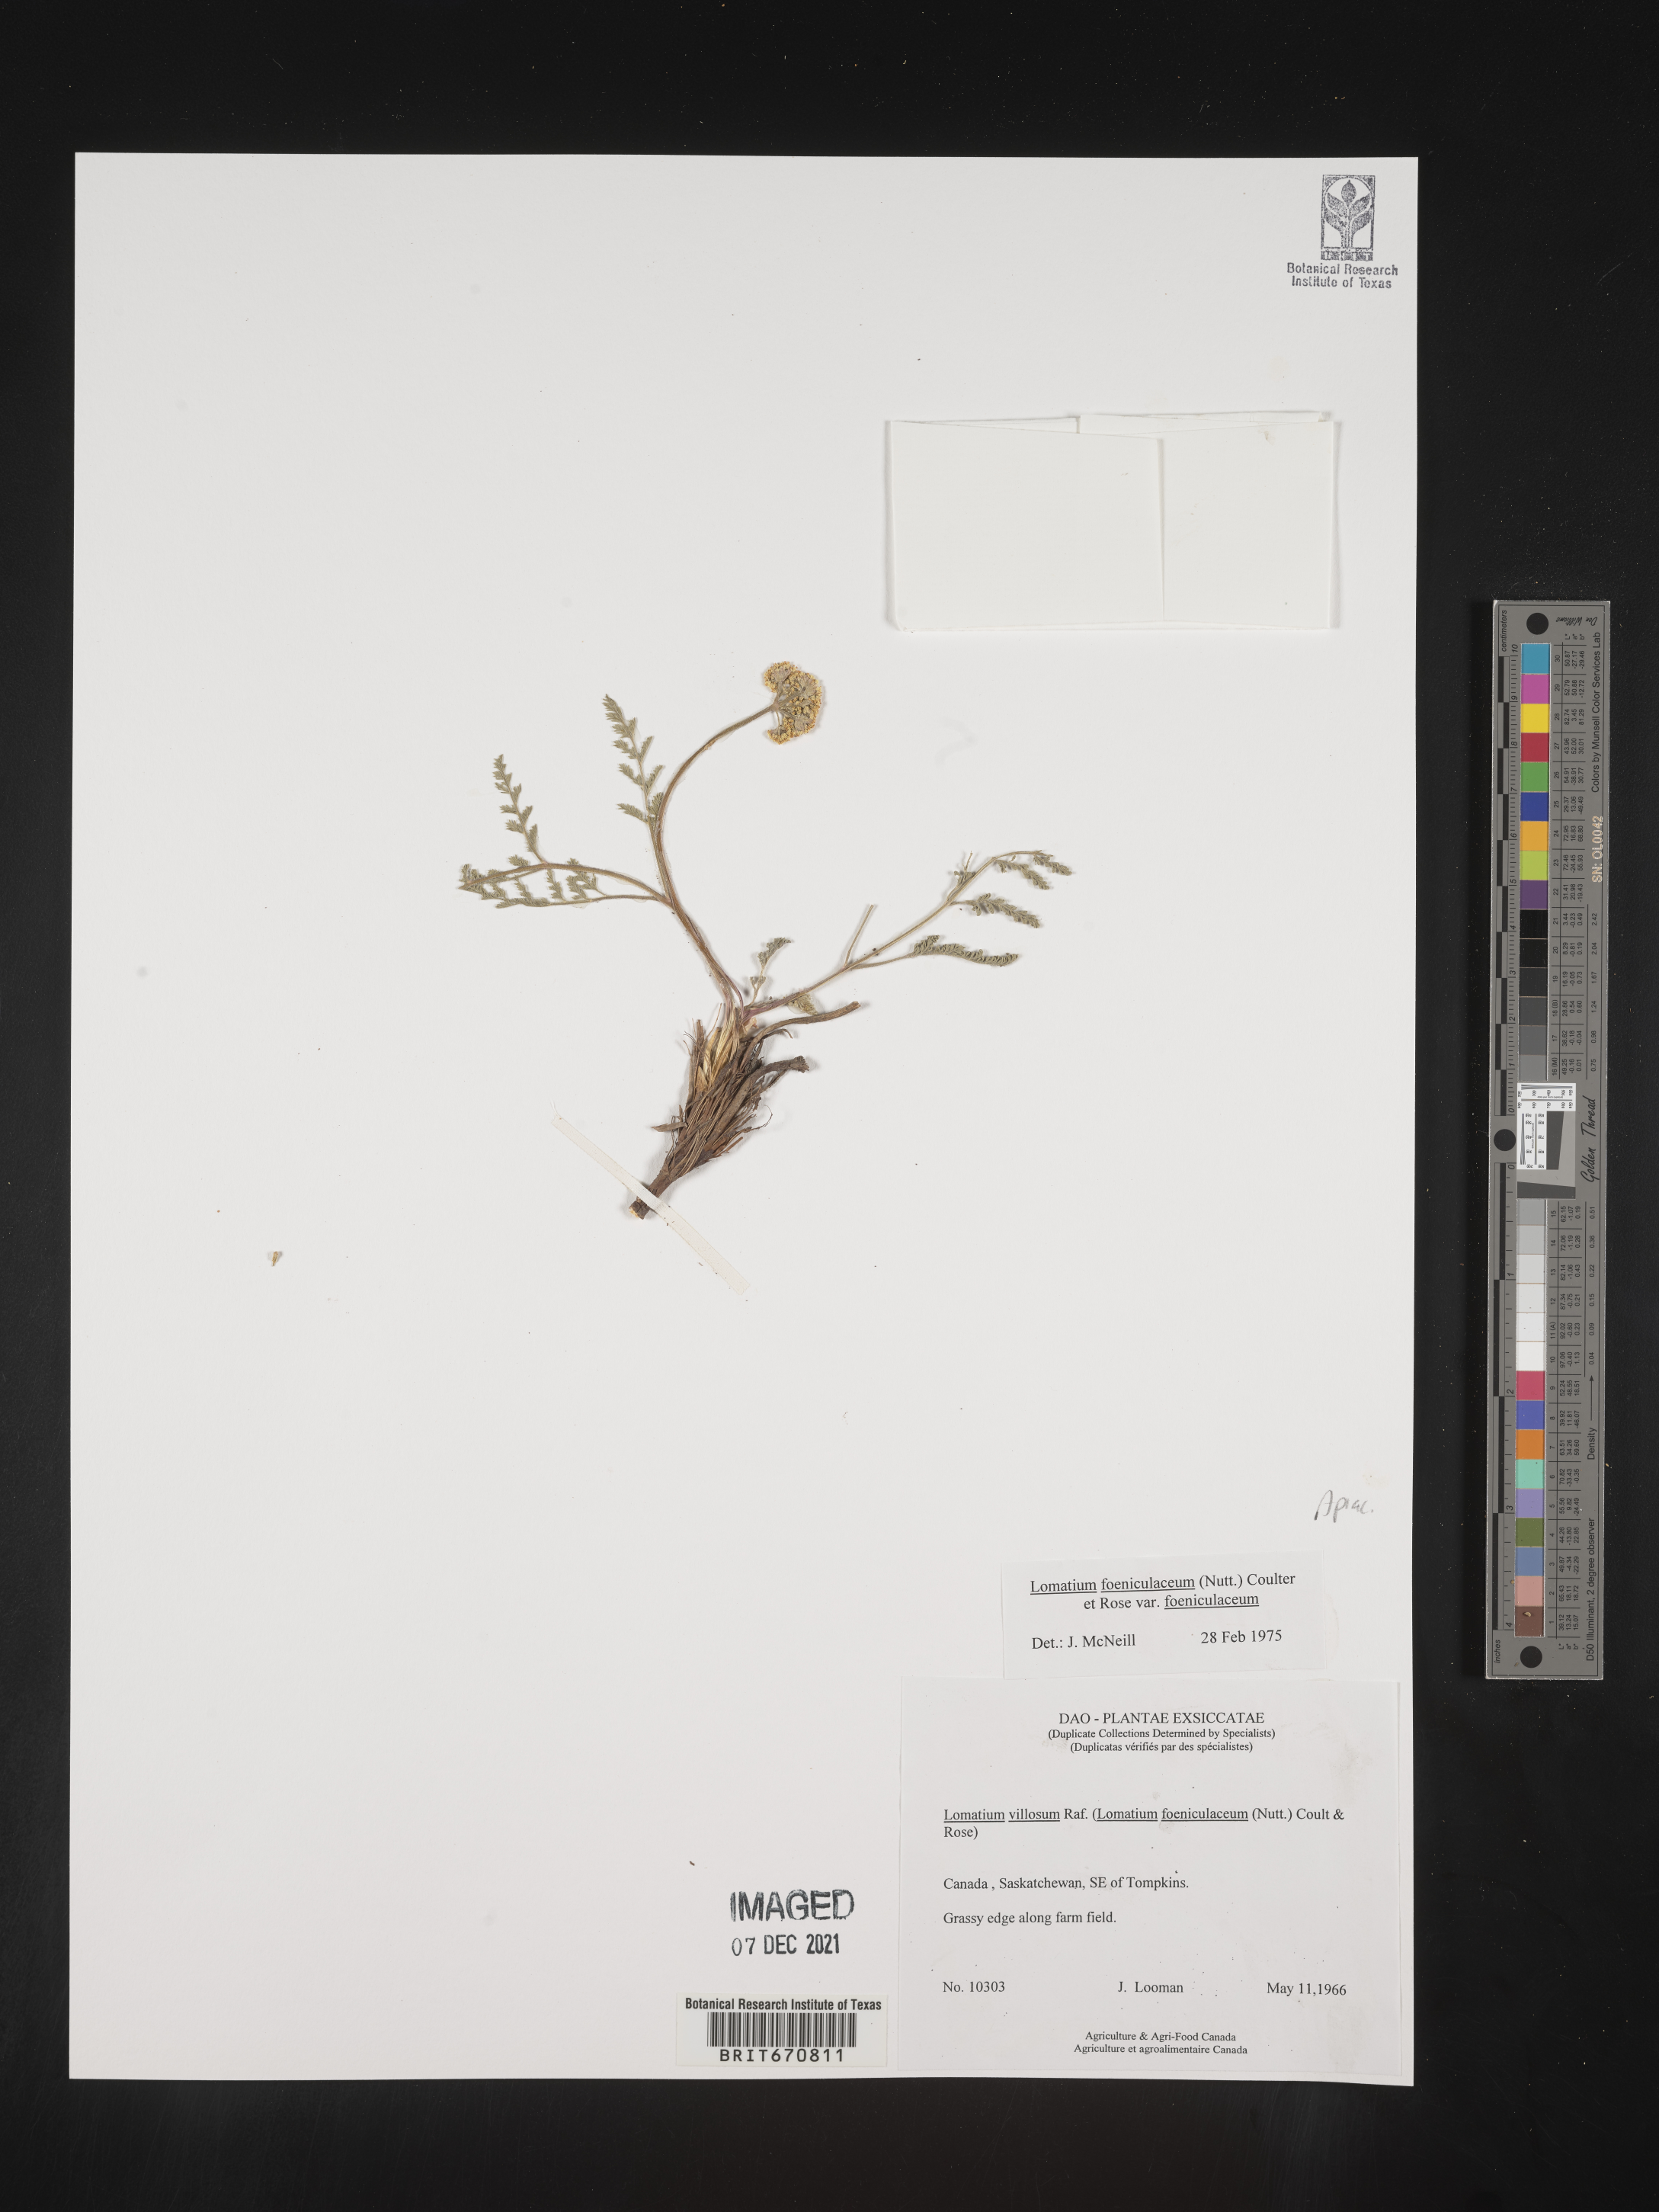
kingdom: Plantae
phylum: Tracheophyta
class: Magnoliopsida
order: Apiales
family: Apiaceae
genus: Lomatium
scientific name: Lomatium vaginatum
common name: Broadsheath desert-parsley
